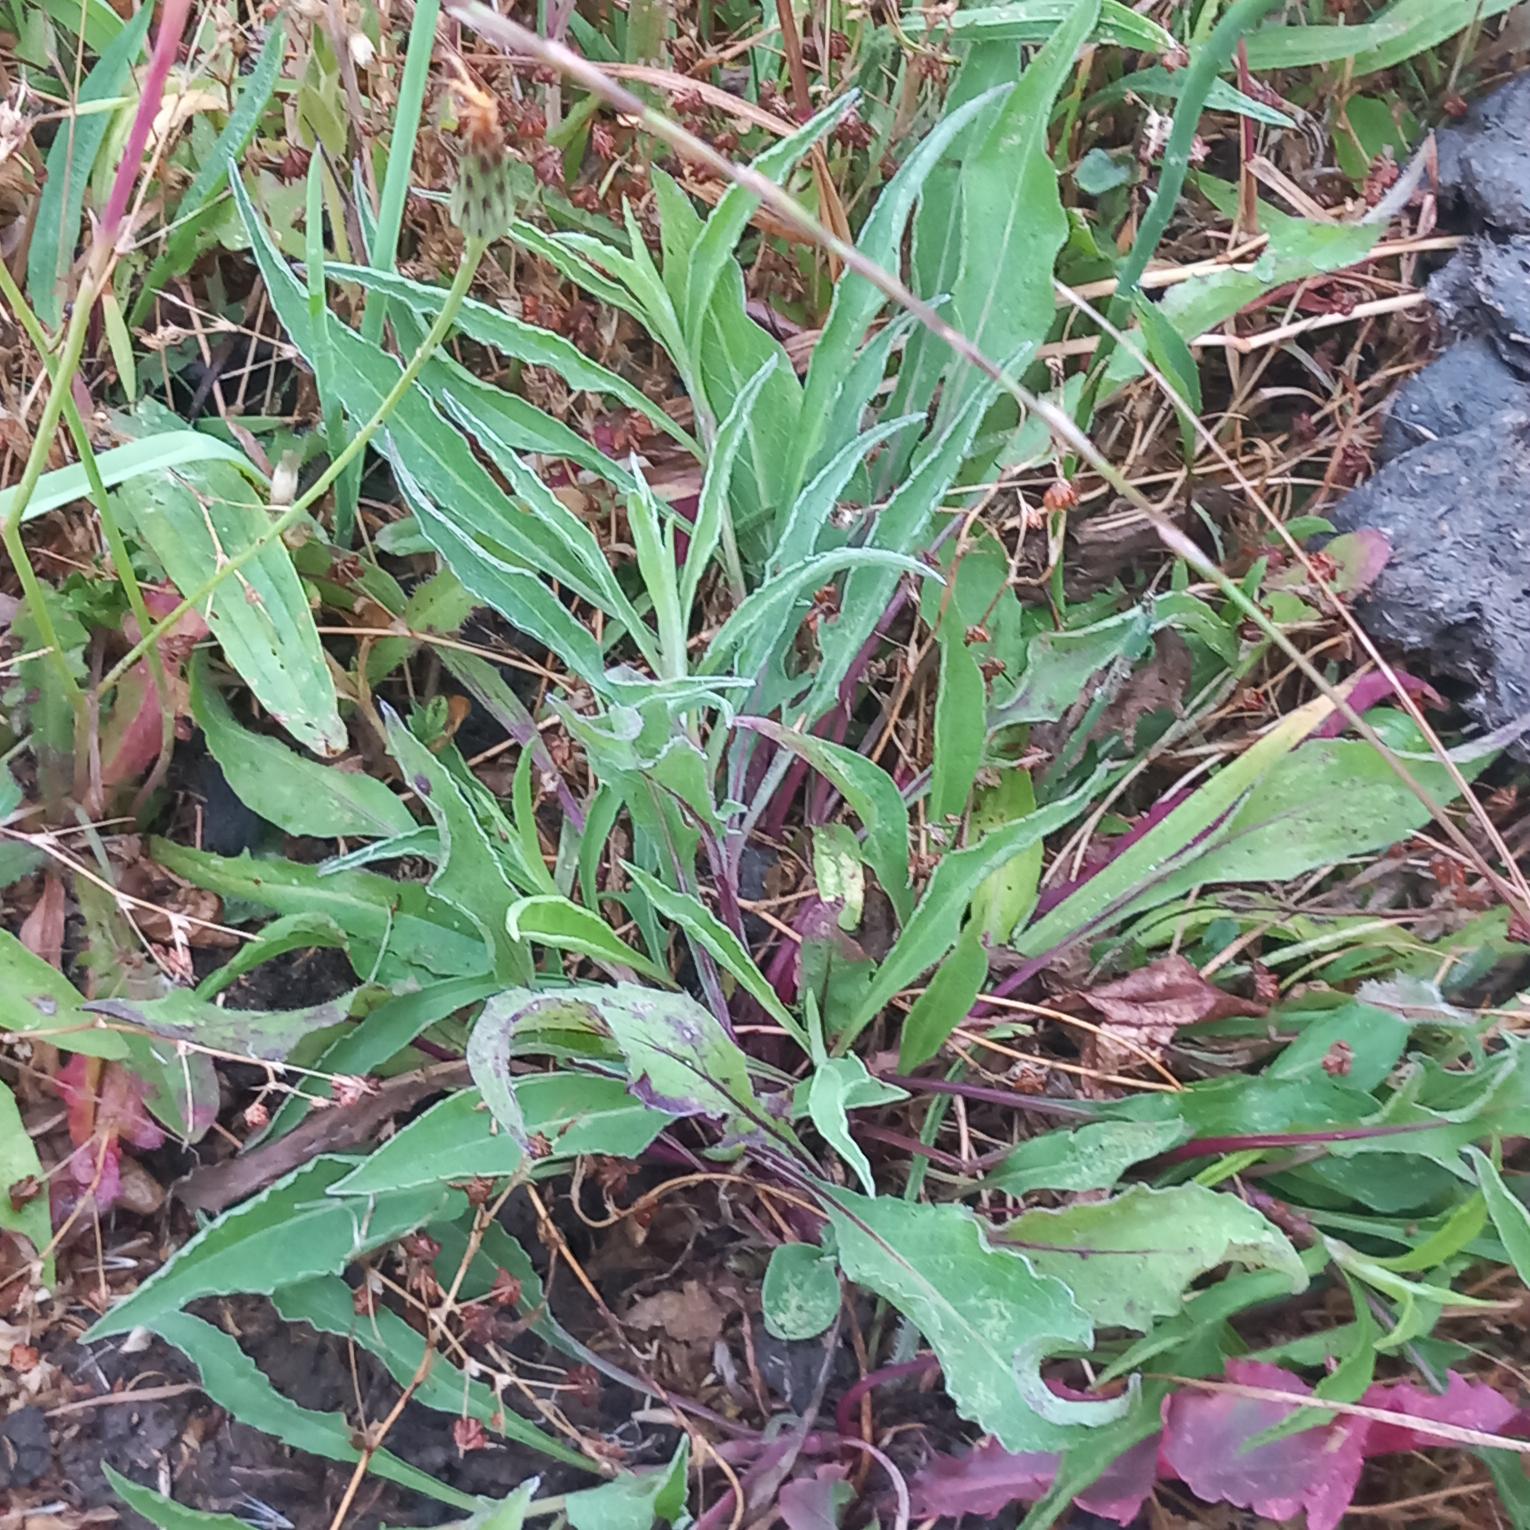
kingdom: Plantae
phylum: Tracheophyta
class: Magnoliopsida
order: Asterales
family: Asteraceae
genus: Centaurea
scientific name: Centaurea jacea
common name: Almindelig knopurt
